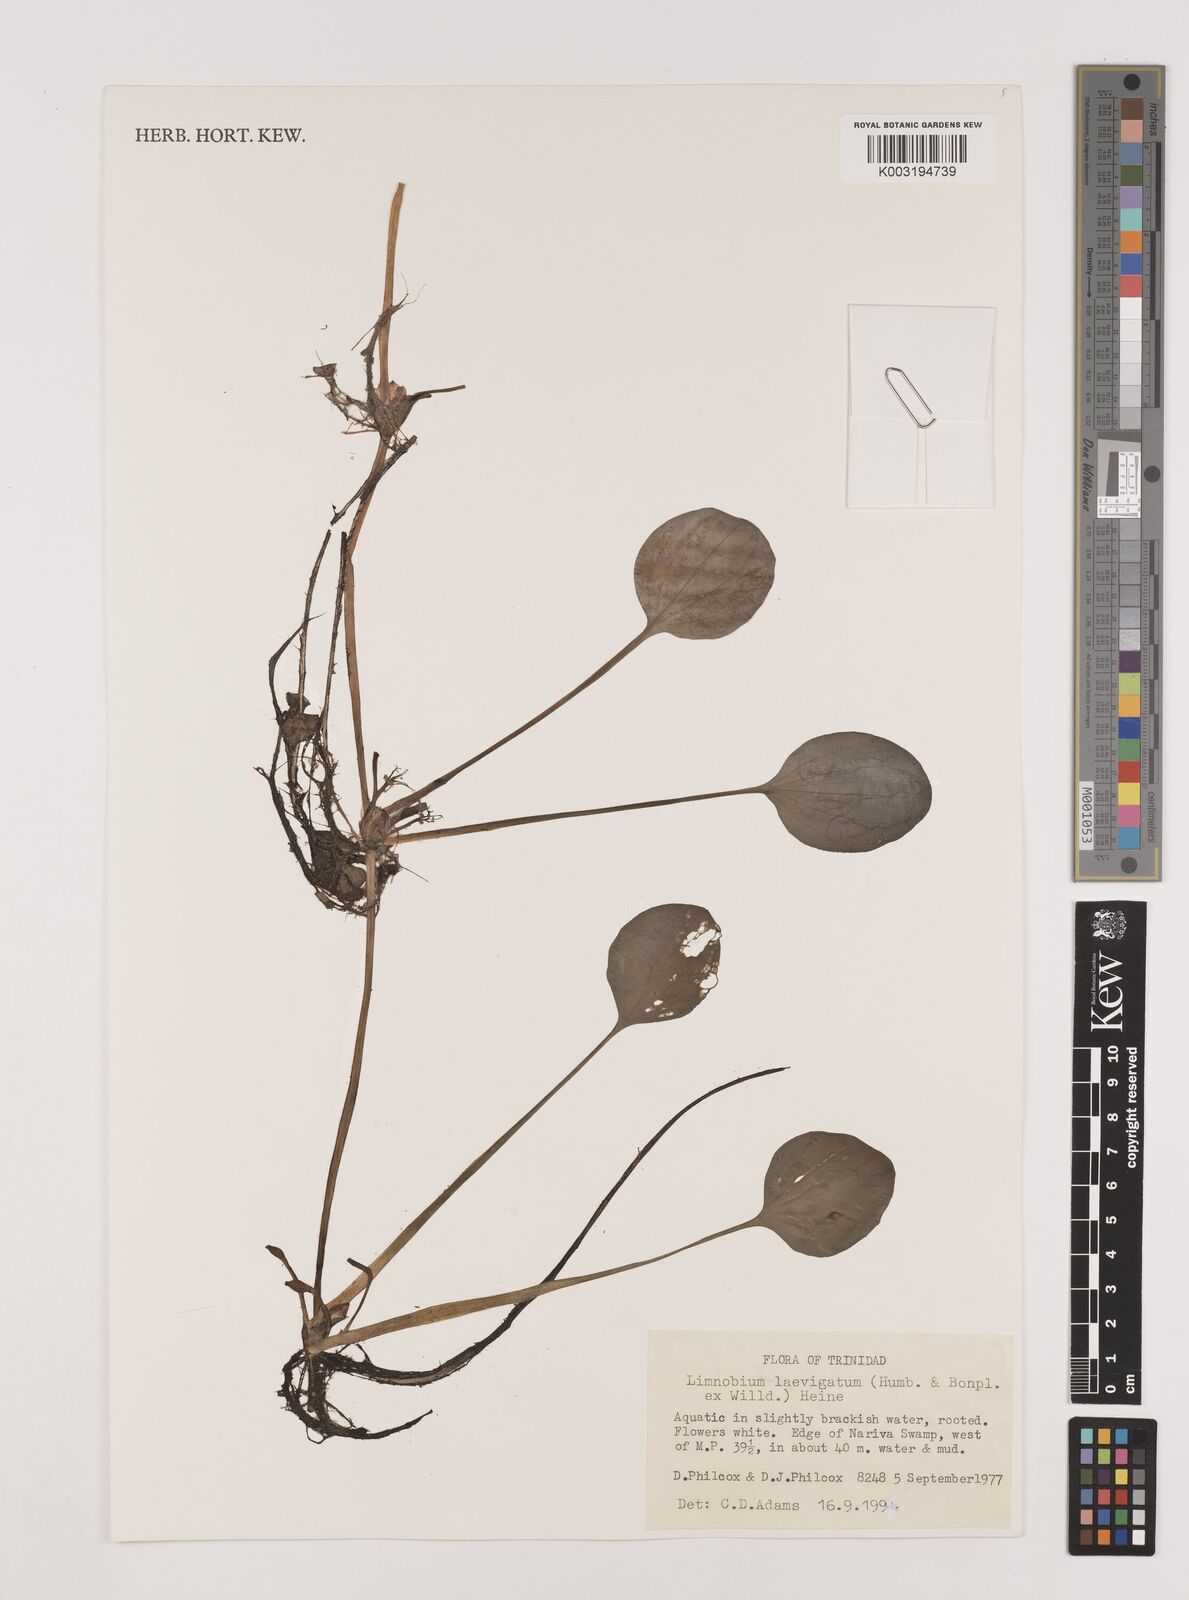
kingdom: Plantae
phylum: Tracheophyta
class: Liliopsida
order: Alismatales
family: Hydrocharitaceae
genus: Hydrocharis
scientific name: Hydrocharis laevigata
